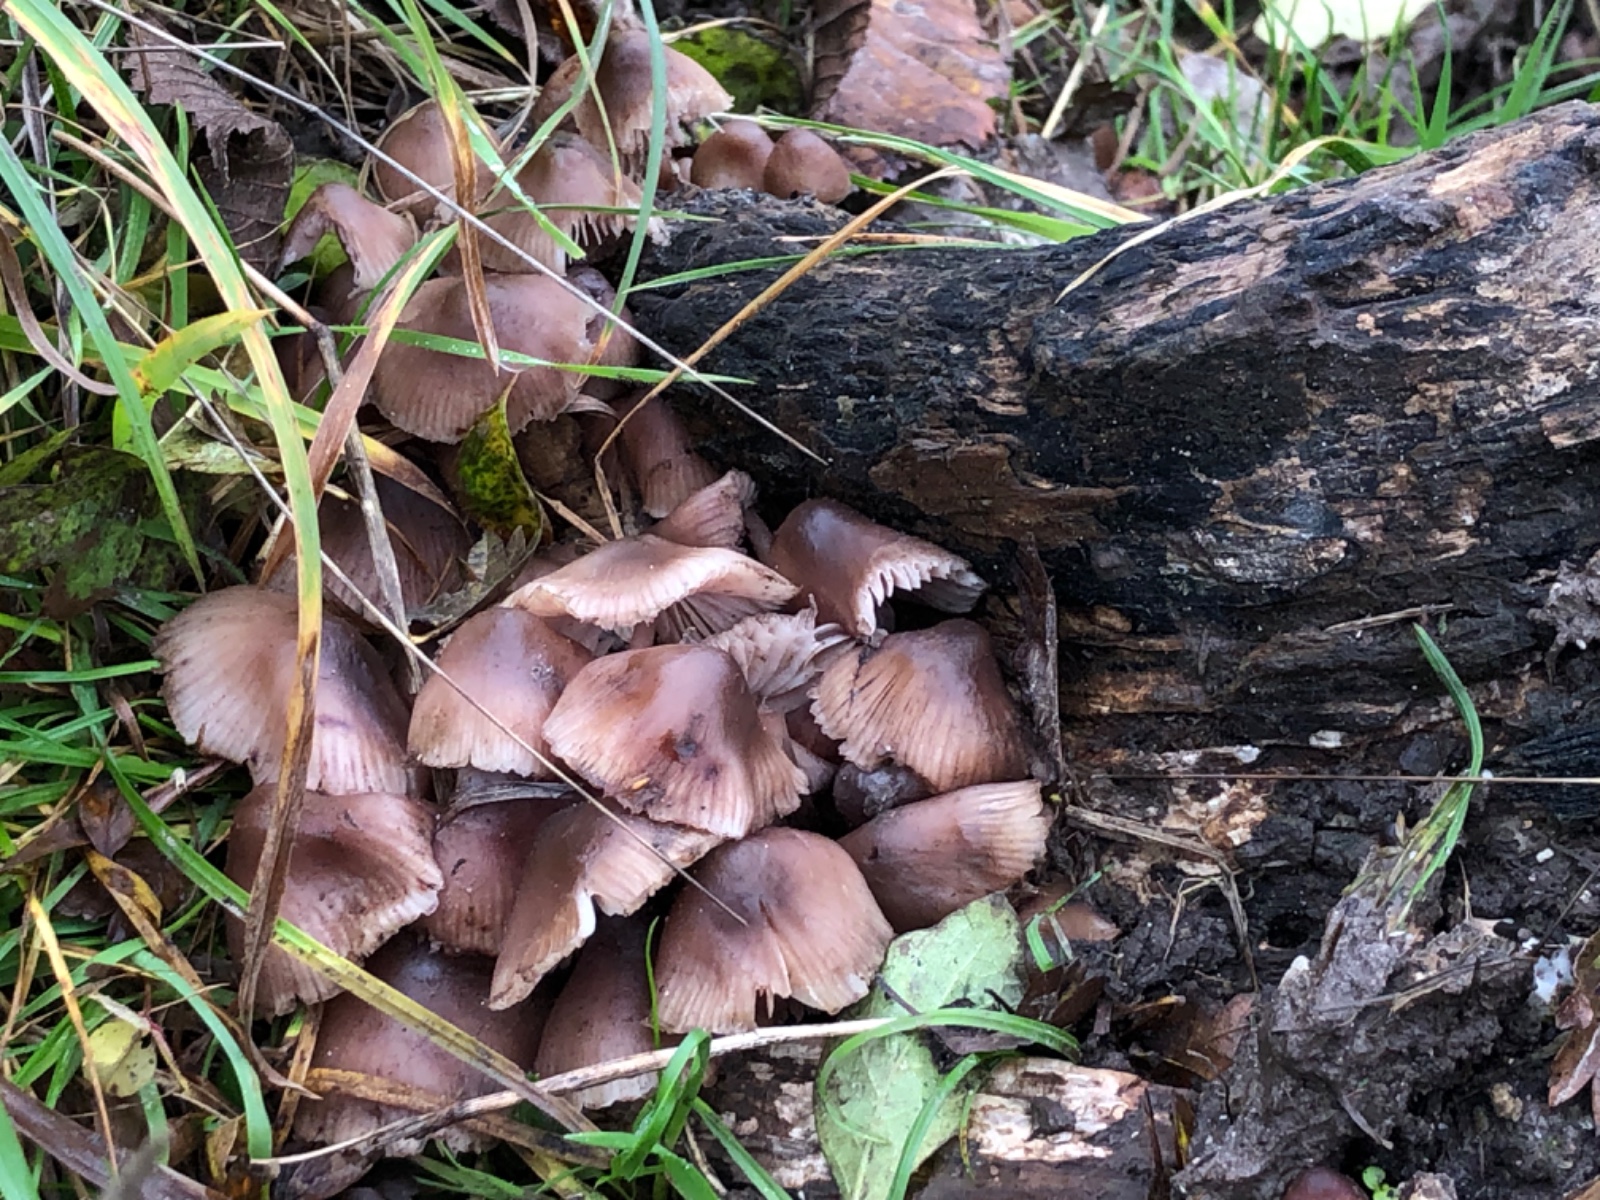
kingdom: Fungi
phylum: Basidiomycota
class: Agaricomycetes
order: Agaricales
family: Mycenaceae
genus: Mycena
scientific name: Mycena haematopus
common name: blødende huesvamp
